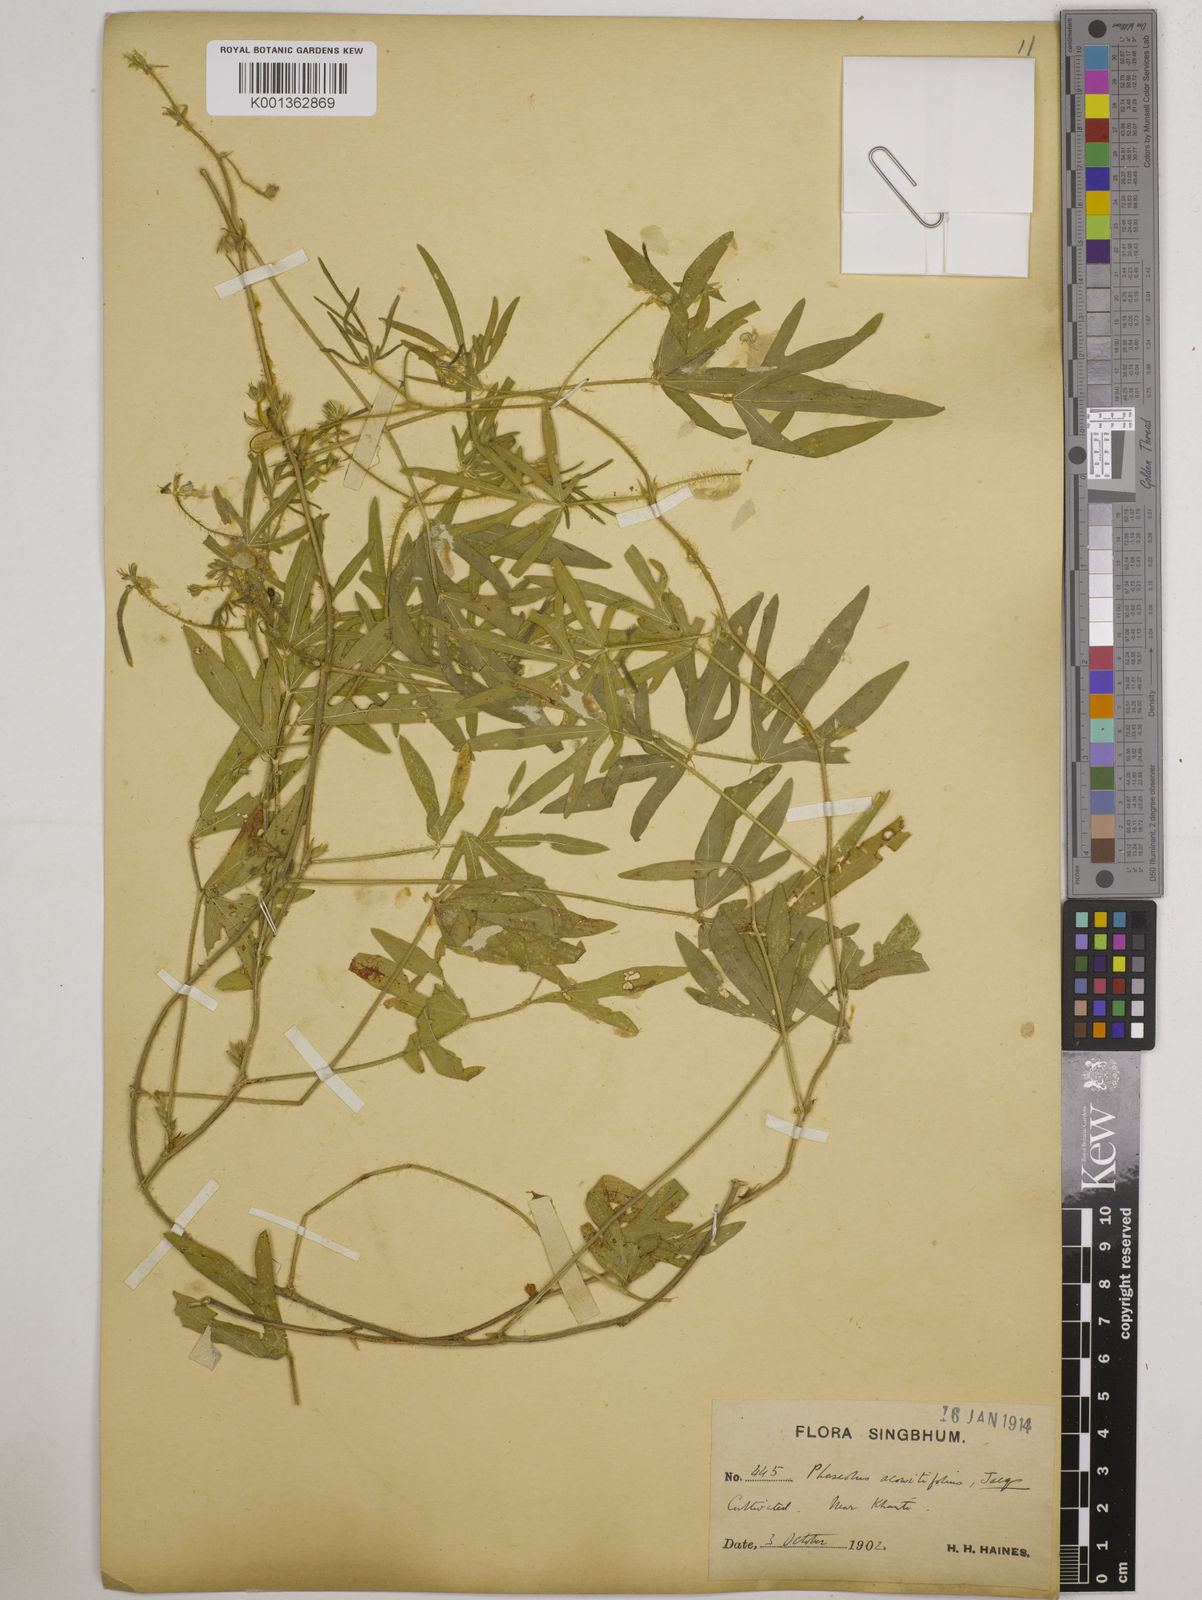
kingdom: Plantae
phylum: Tracheophyta
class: Magnoliopsida
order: Fabales
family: Fabaceae
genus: Vigna
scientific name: Vigna aconitifolia
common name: Dew bean
